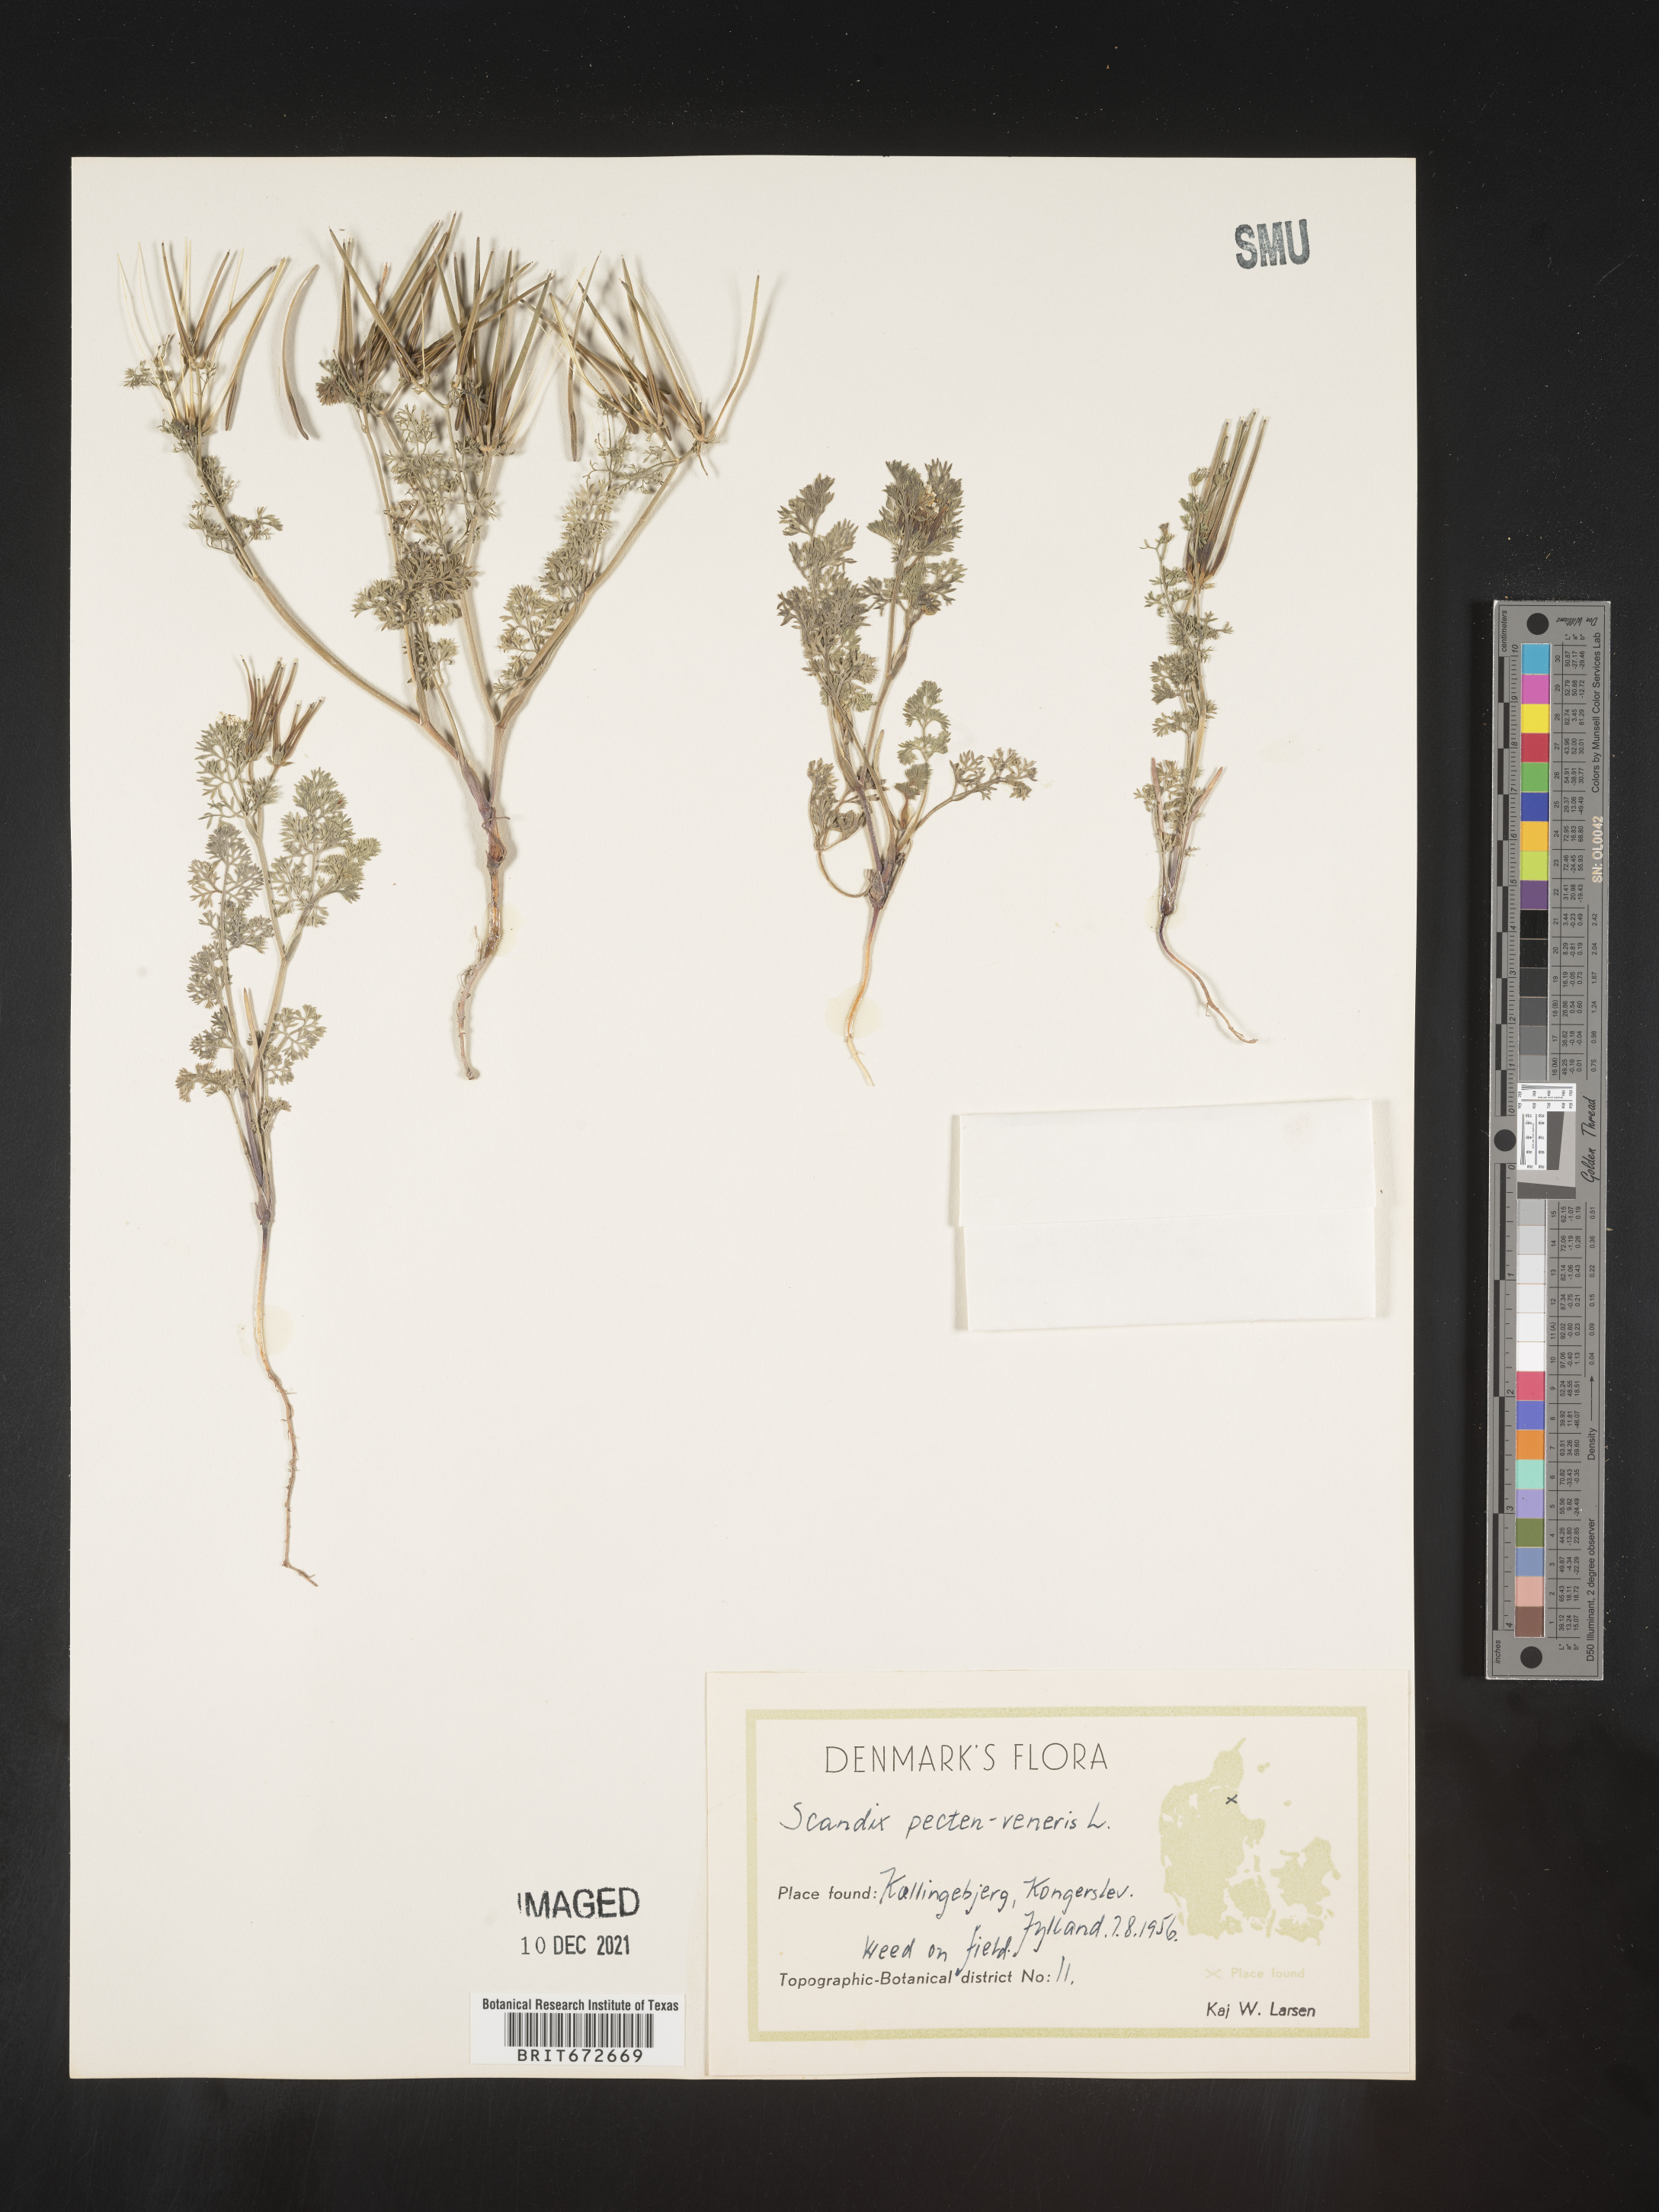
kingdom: Plantae
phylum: Tracheophyta
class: Magnoliopsida
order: Apiales
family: Apiaceae
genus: Scandix
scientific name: Scandix
